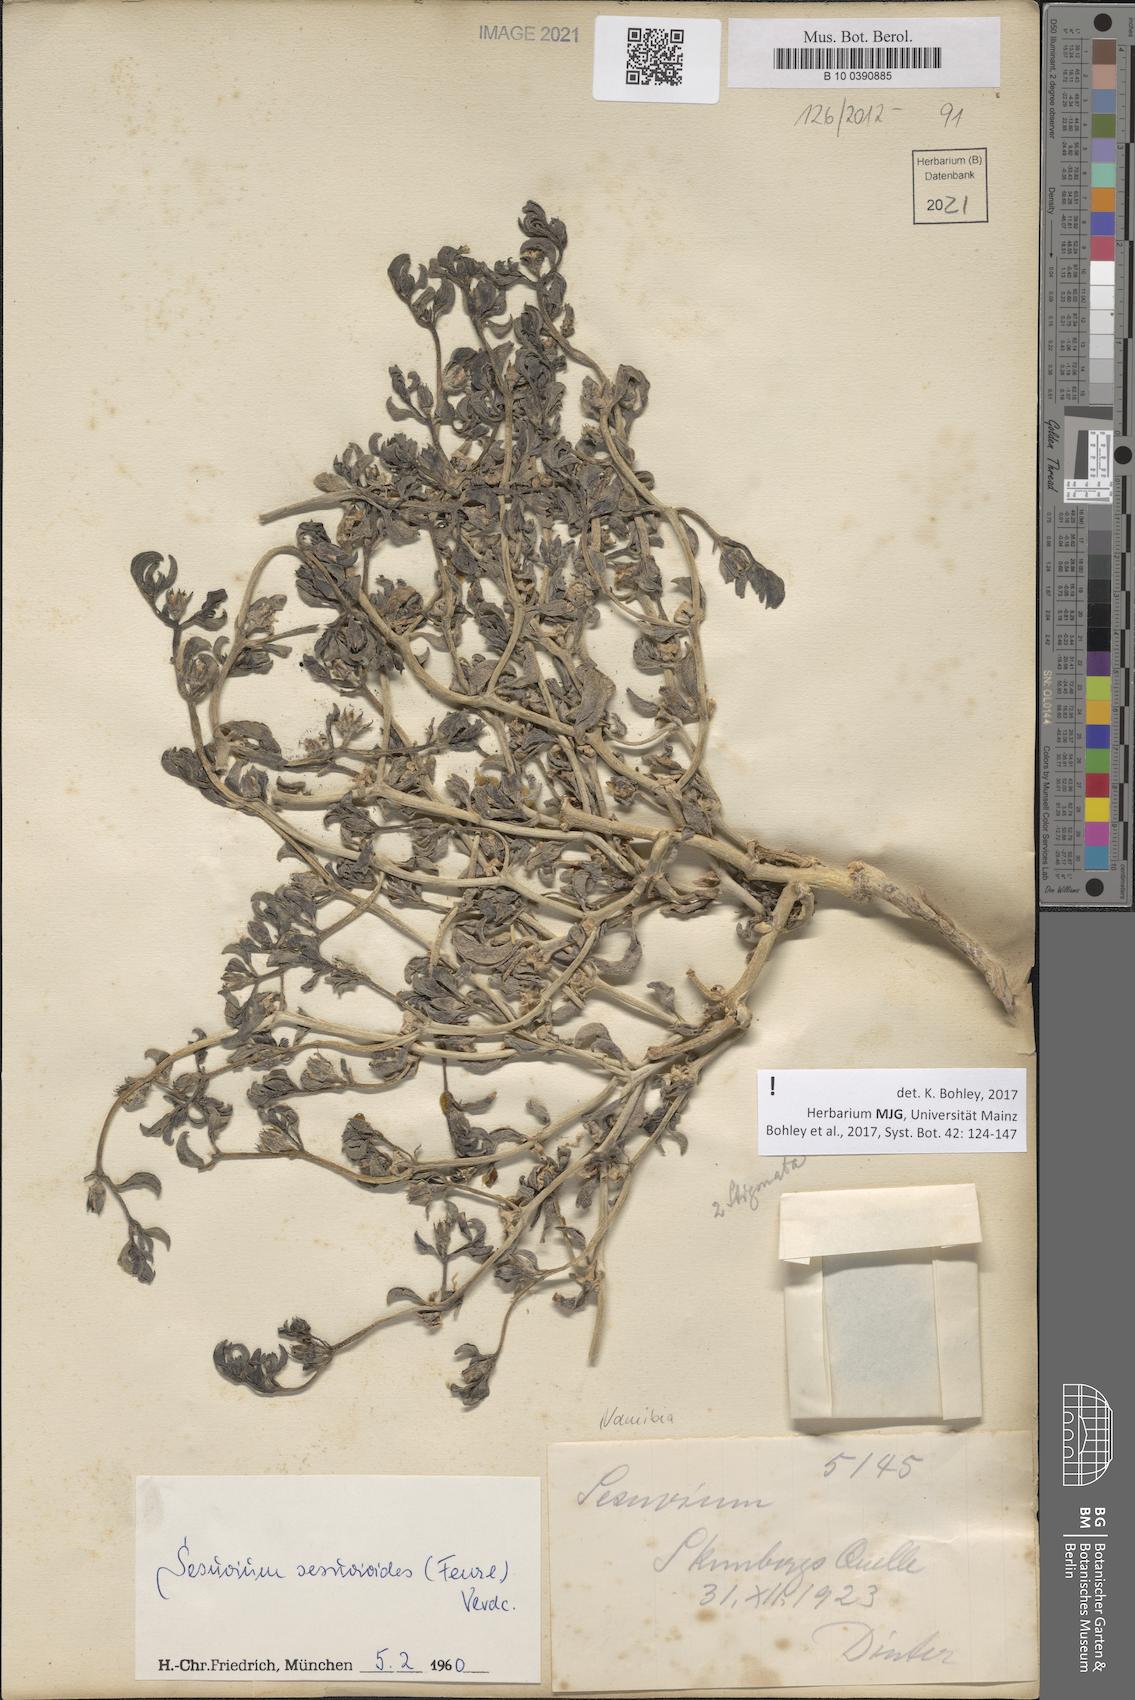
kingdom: Plantae
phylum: Tracheophyta
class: Magnoliopsida
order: Caryophyllales
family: Aizoaceae
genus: Sesuvium
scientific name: Sesuvium sesuvioides
